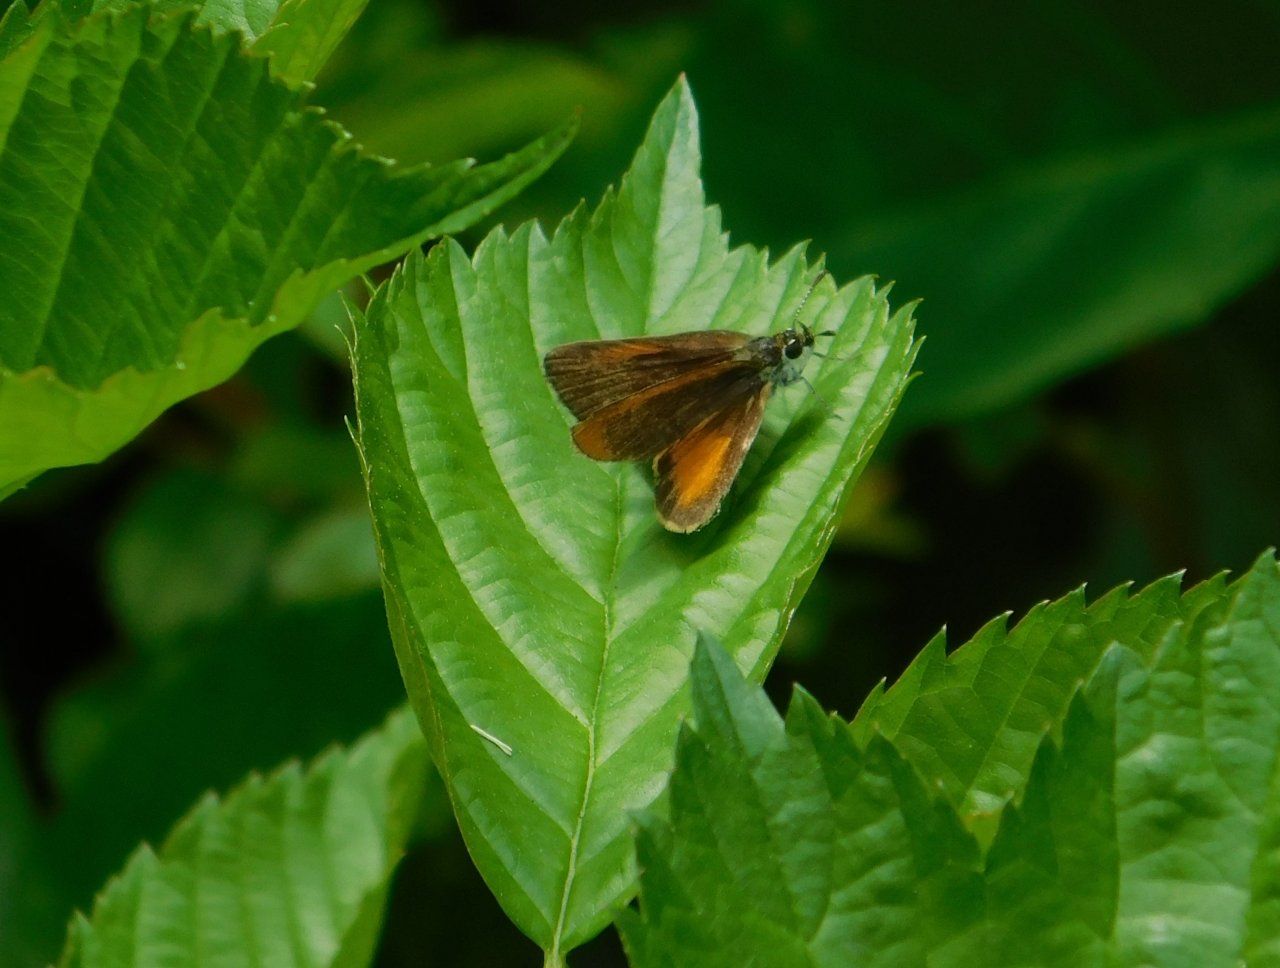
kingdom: Animalia
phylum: Arthropoda
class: Insecta
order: Lepidoptera
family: Hesperiidae
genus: Ancyloxypha
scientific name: Ancyloxypha numitor
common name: Least Skipper
